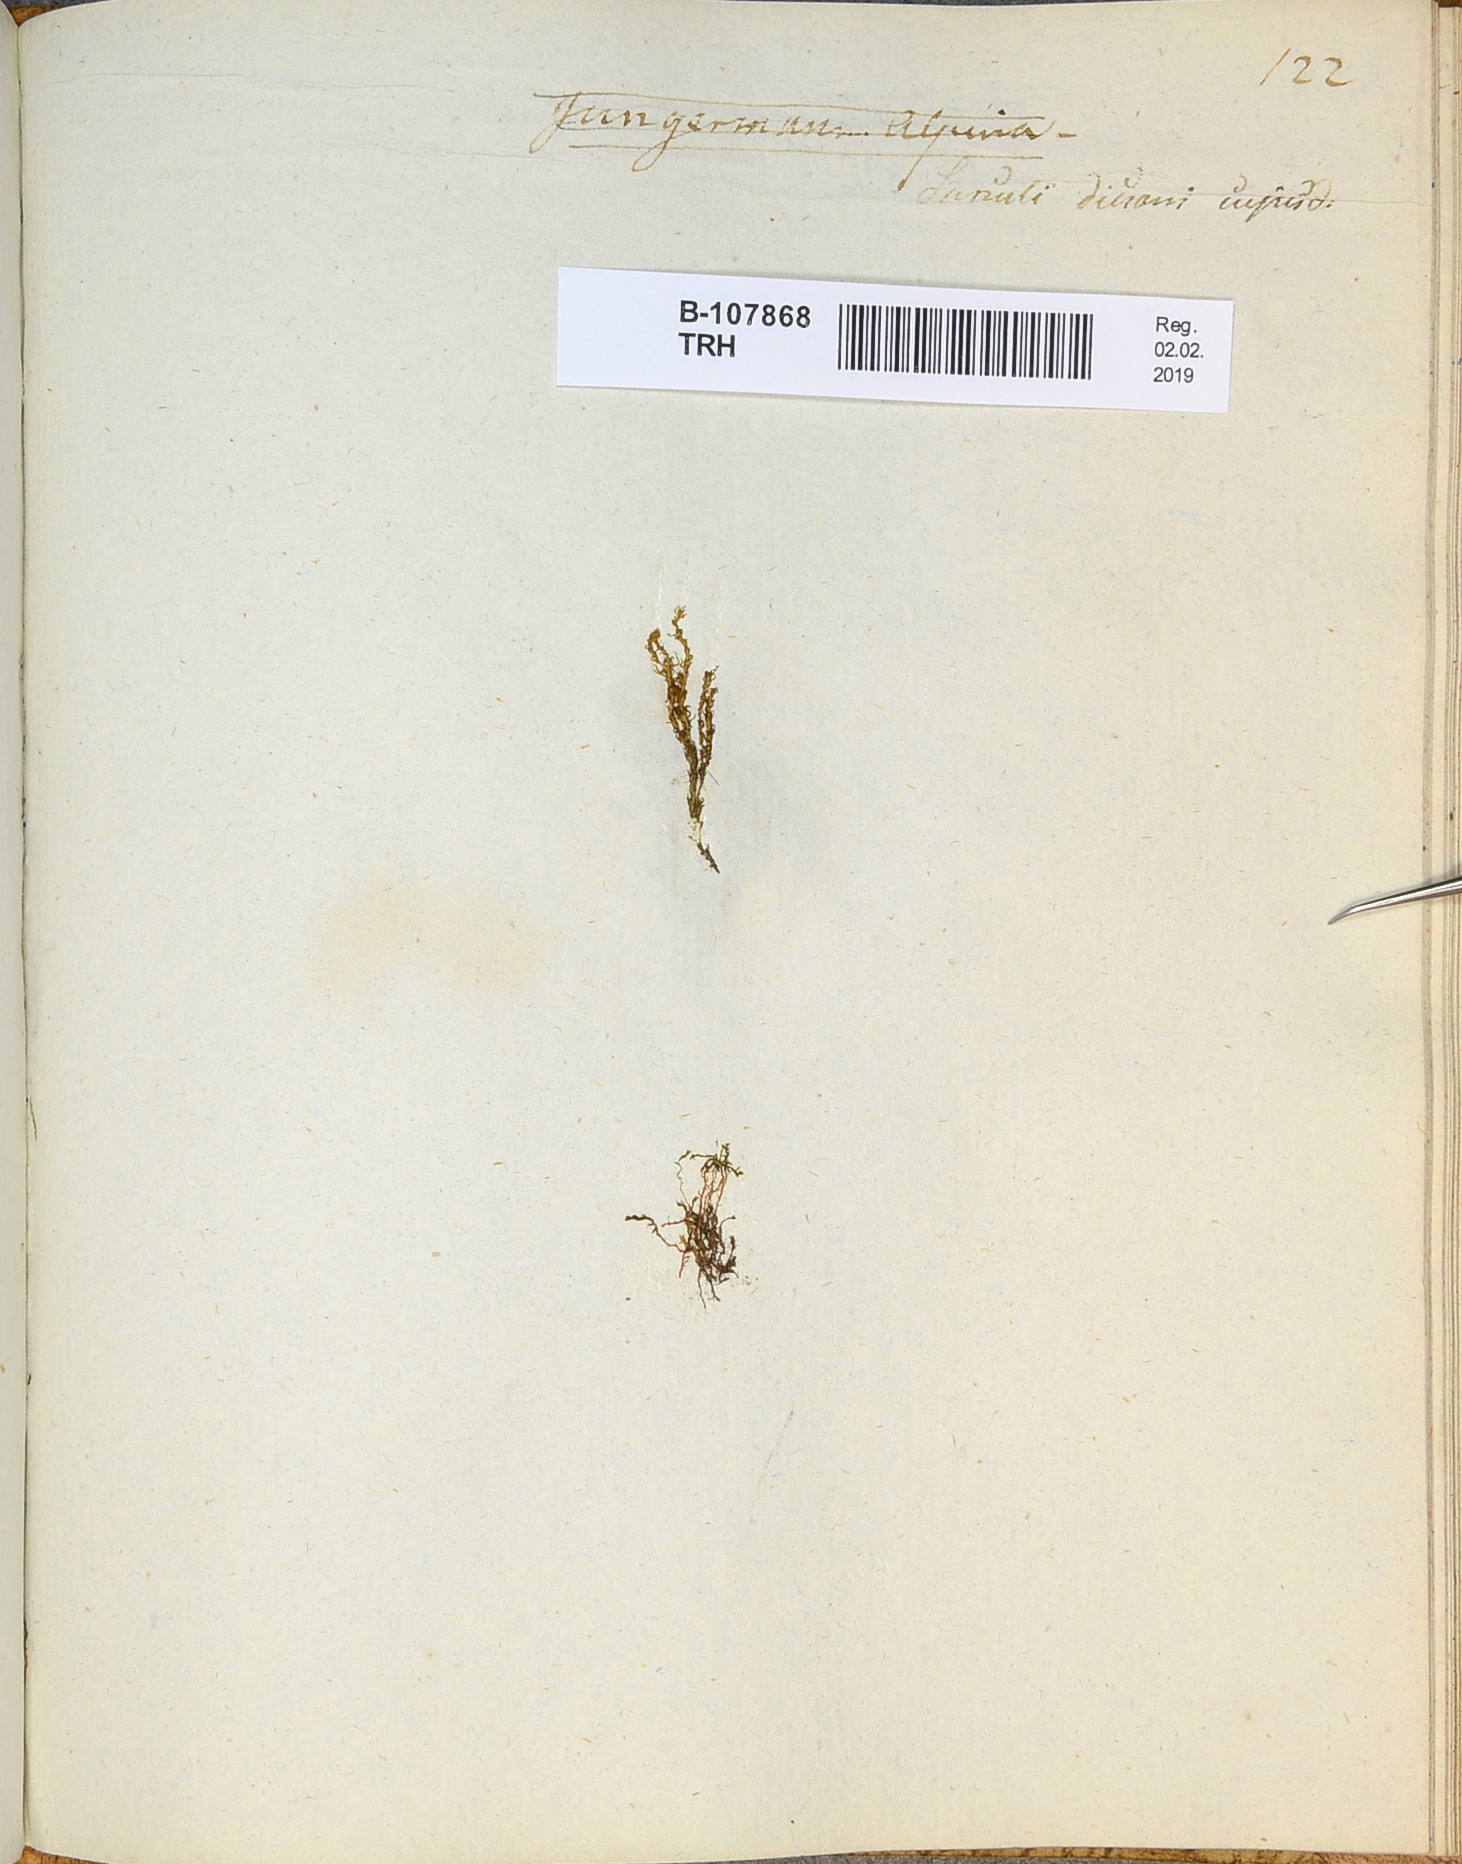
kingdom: Plantae
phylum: Marchantiophyta
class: Jungermanniopsida
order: Jungermanniales
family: Jungermanniaceae
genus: Jungermannia
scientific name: Jungermannia
